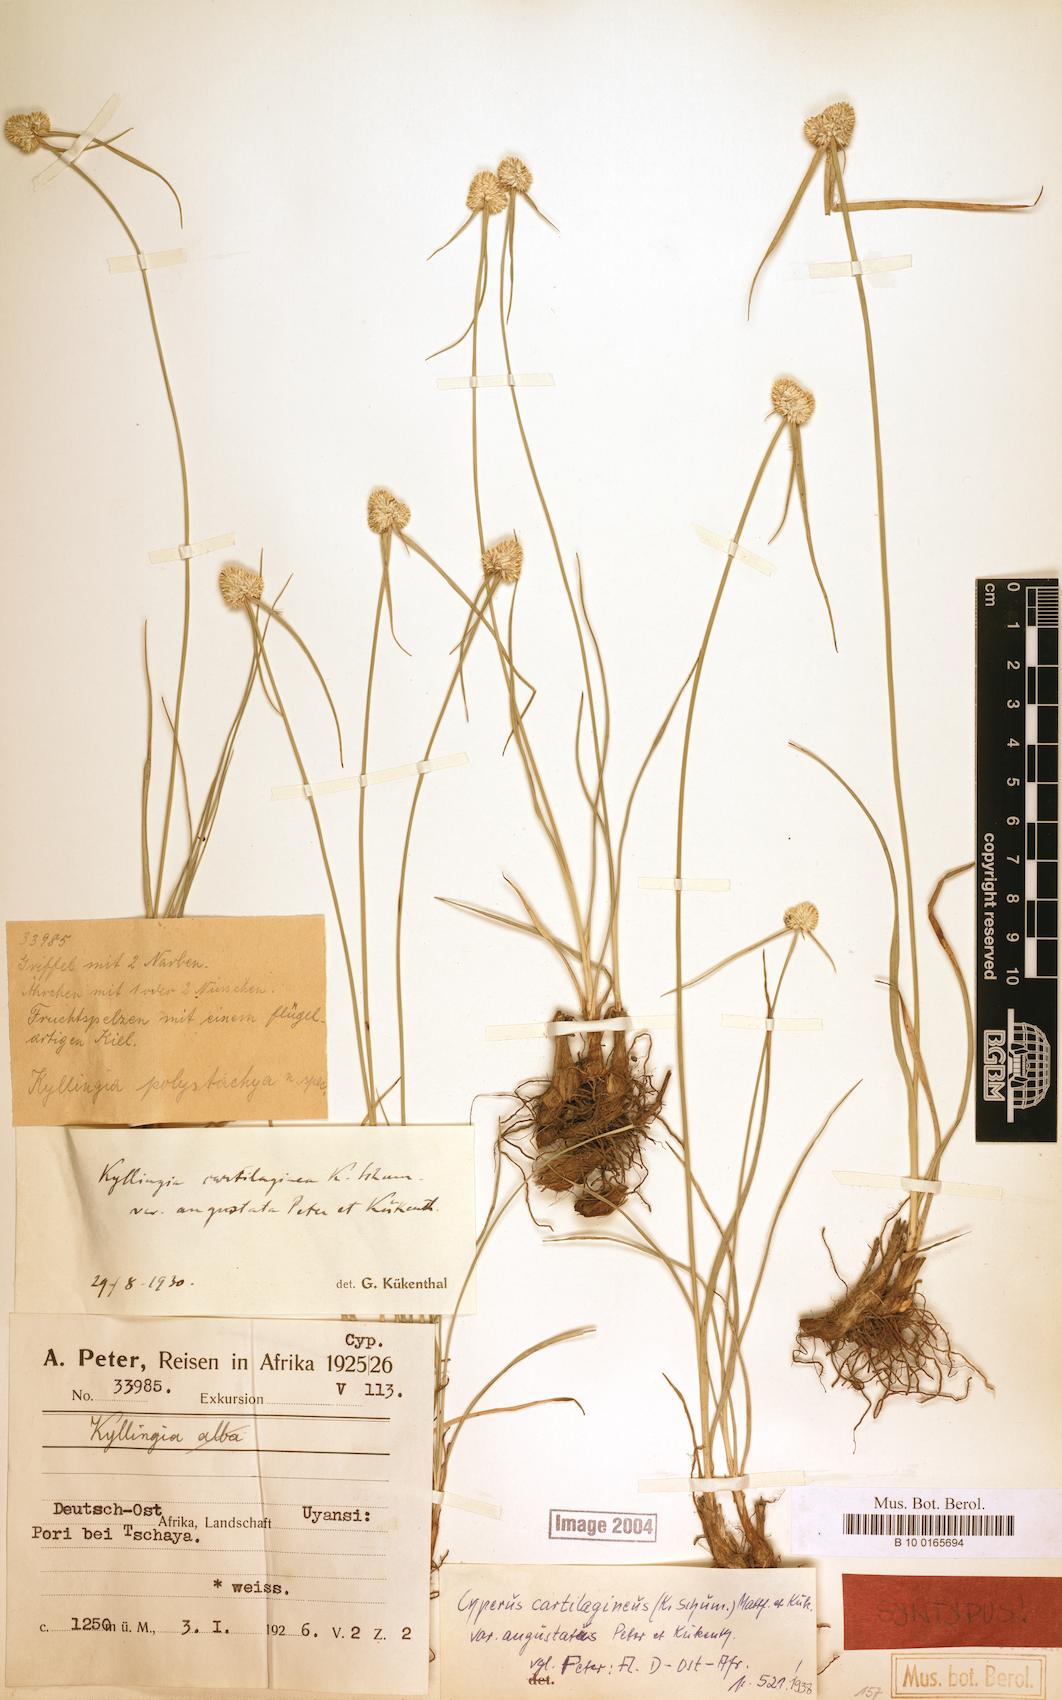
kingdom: Plantae
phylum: Tracheophyta
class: Liliopsida
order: Poales
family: Cyperaceae
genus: Cyperus
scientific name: Cyperus comosipes
